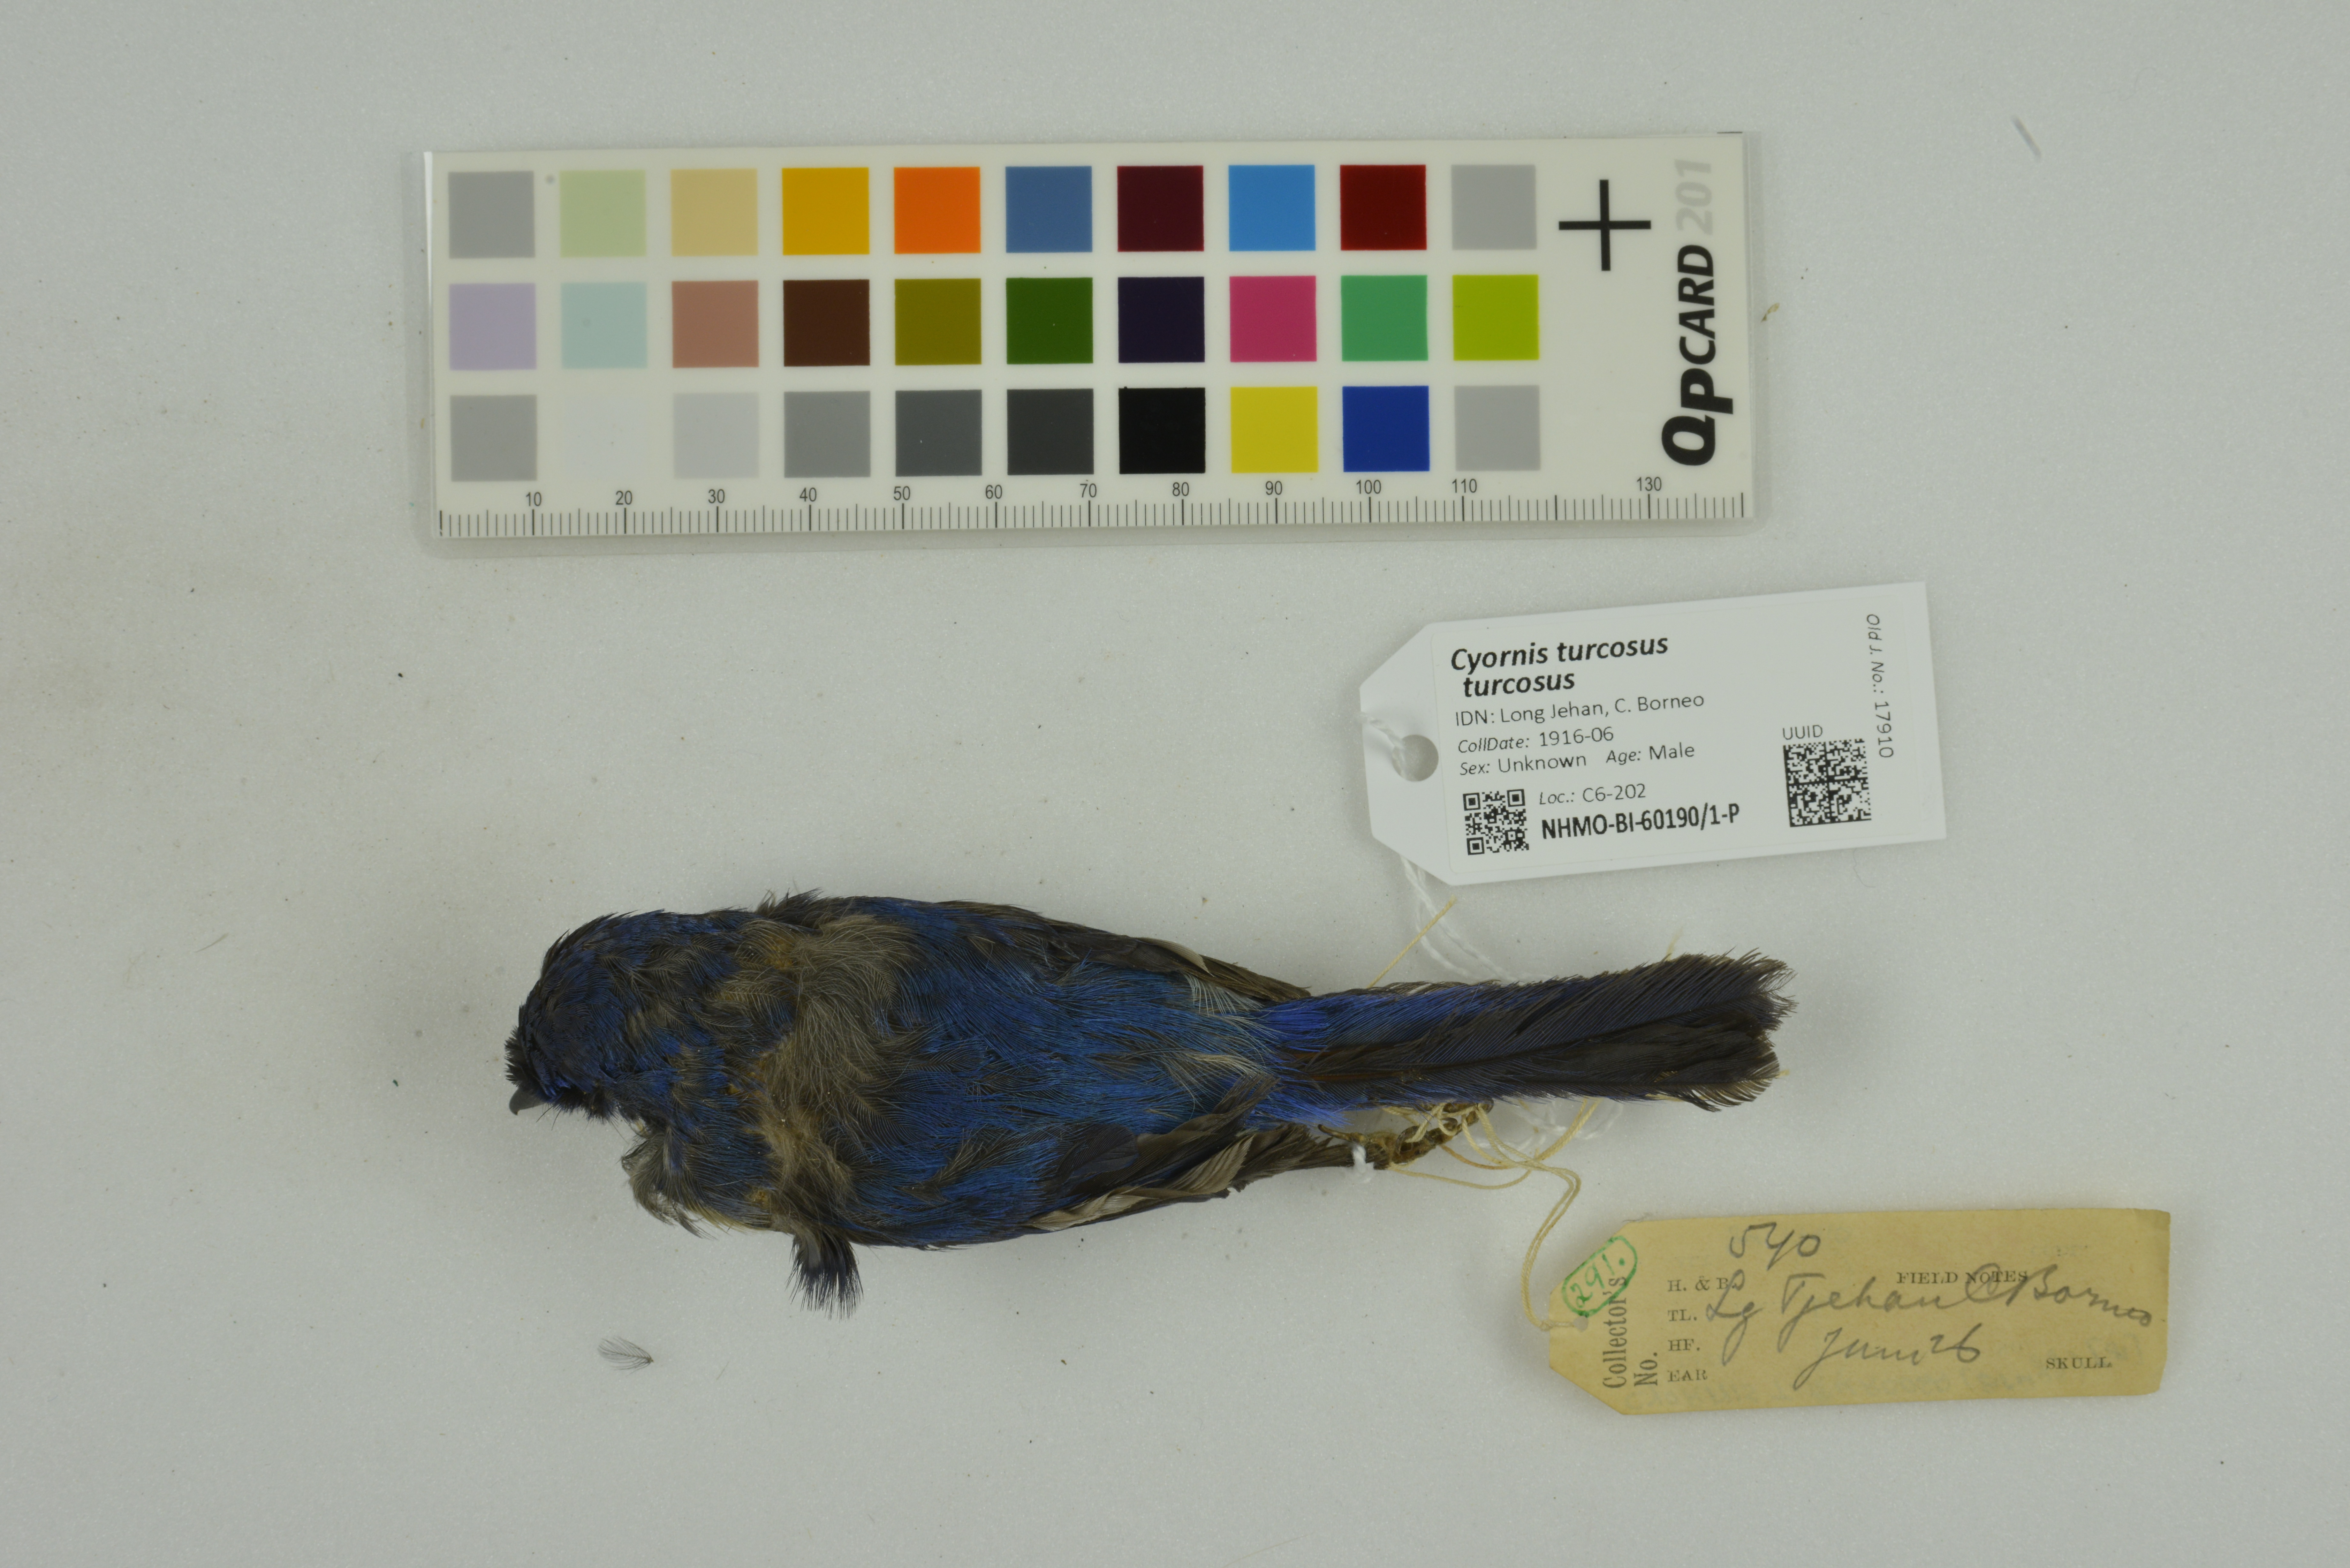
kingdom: Animalia
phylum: Chordata
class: Aves
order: Passeriformes
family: Muscicapidae
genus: Cyornis
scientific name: Cyornis turcosus
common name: Malaysian blue flycatcher
